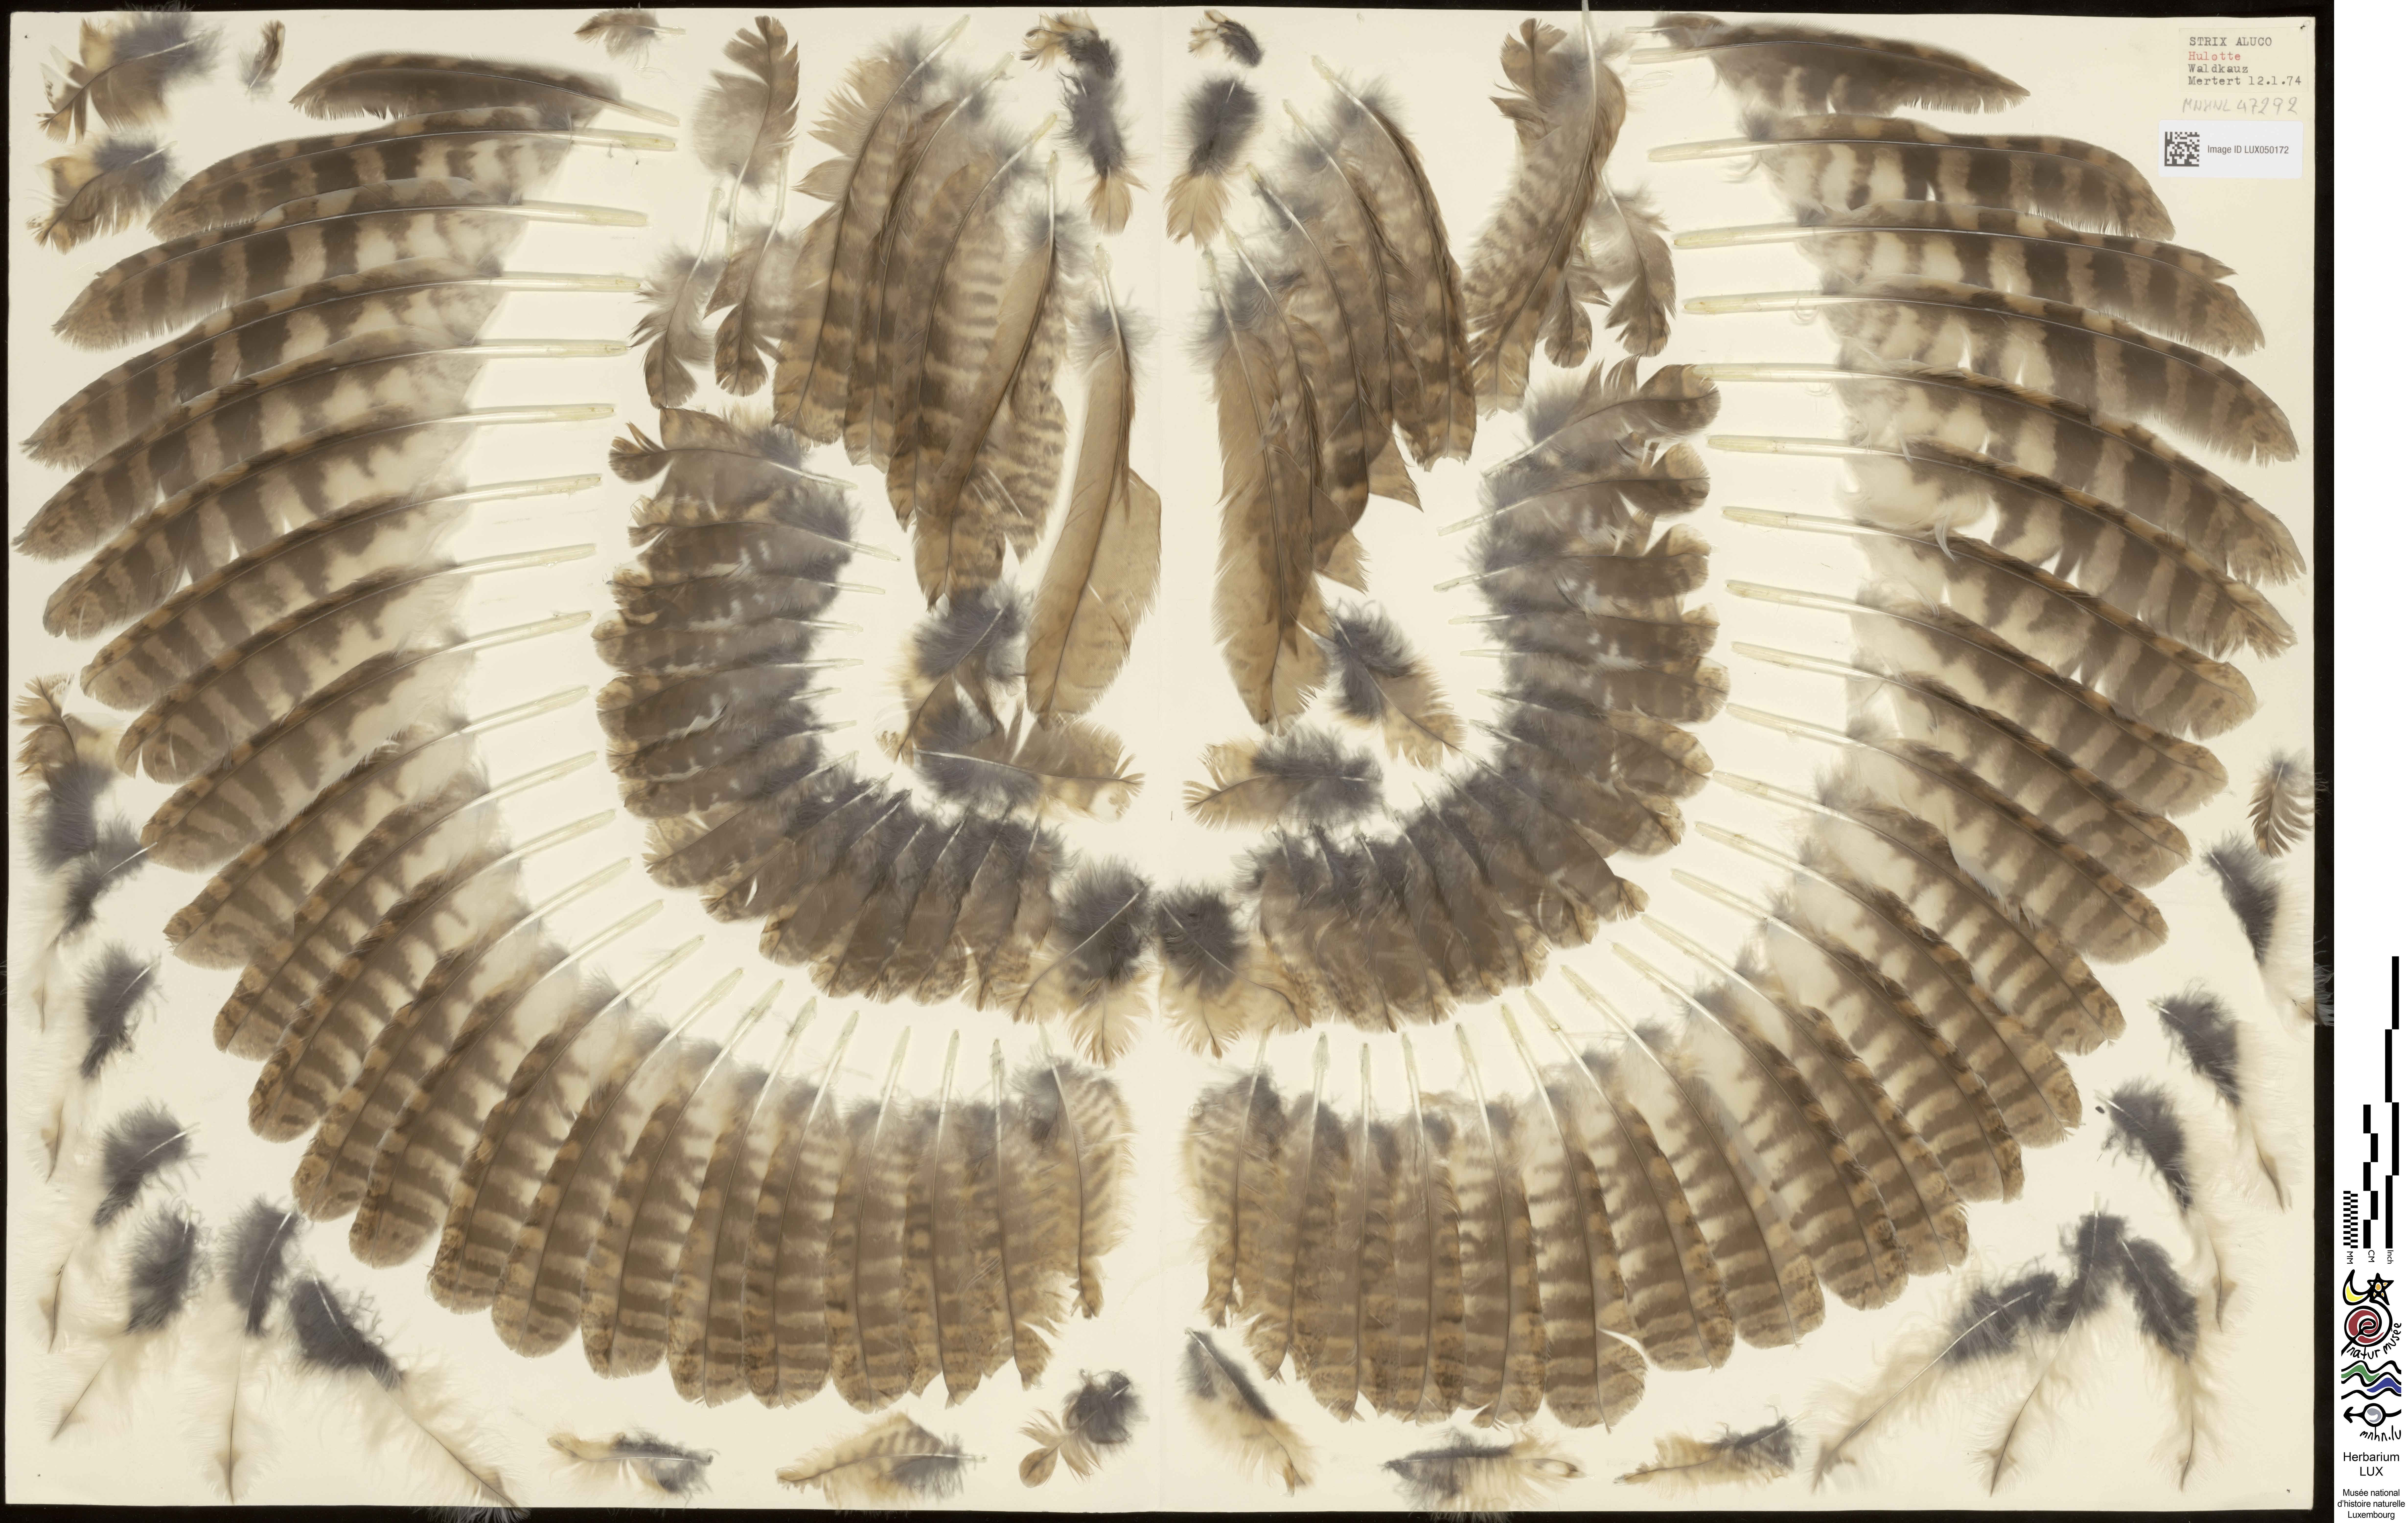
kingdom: Animalia
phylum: Chordata
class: Aves
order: Strigiformes
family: Strigidae
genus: Strix
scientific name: Strix aluco
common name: Tawny owl
